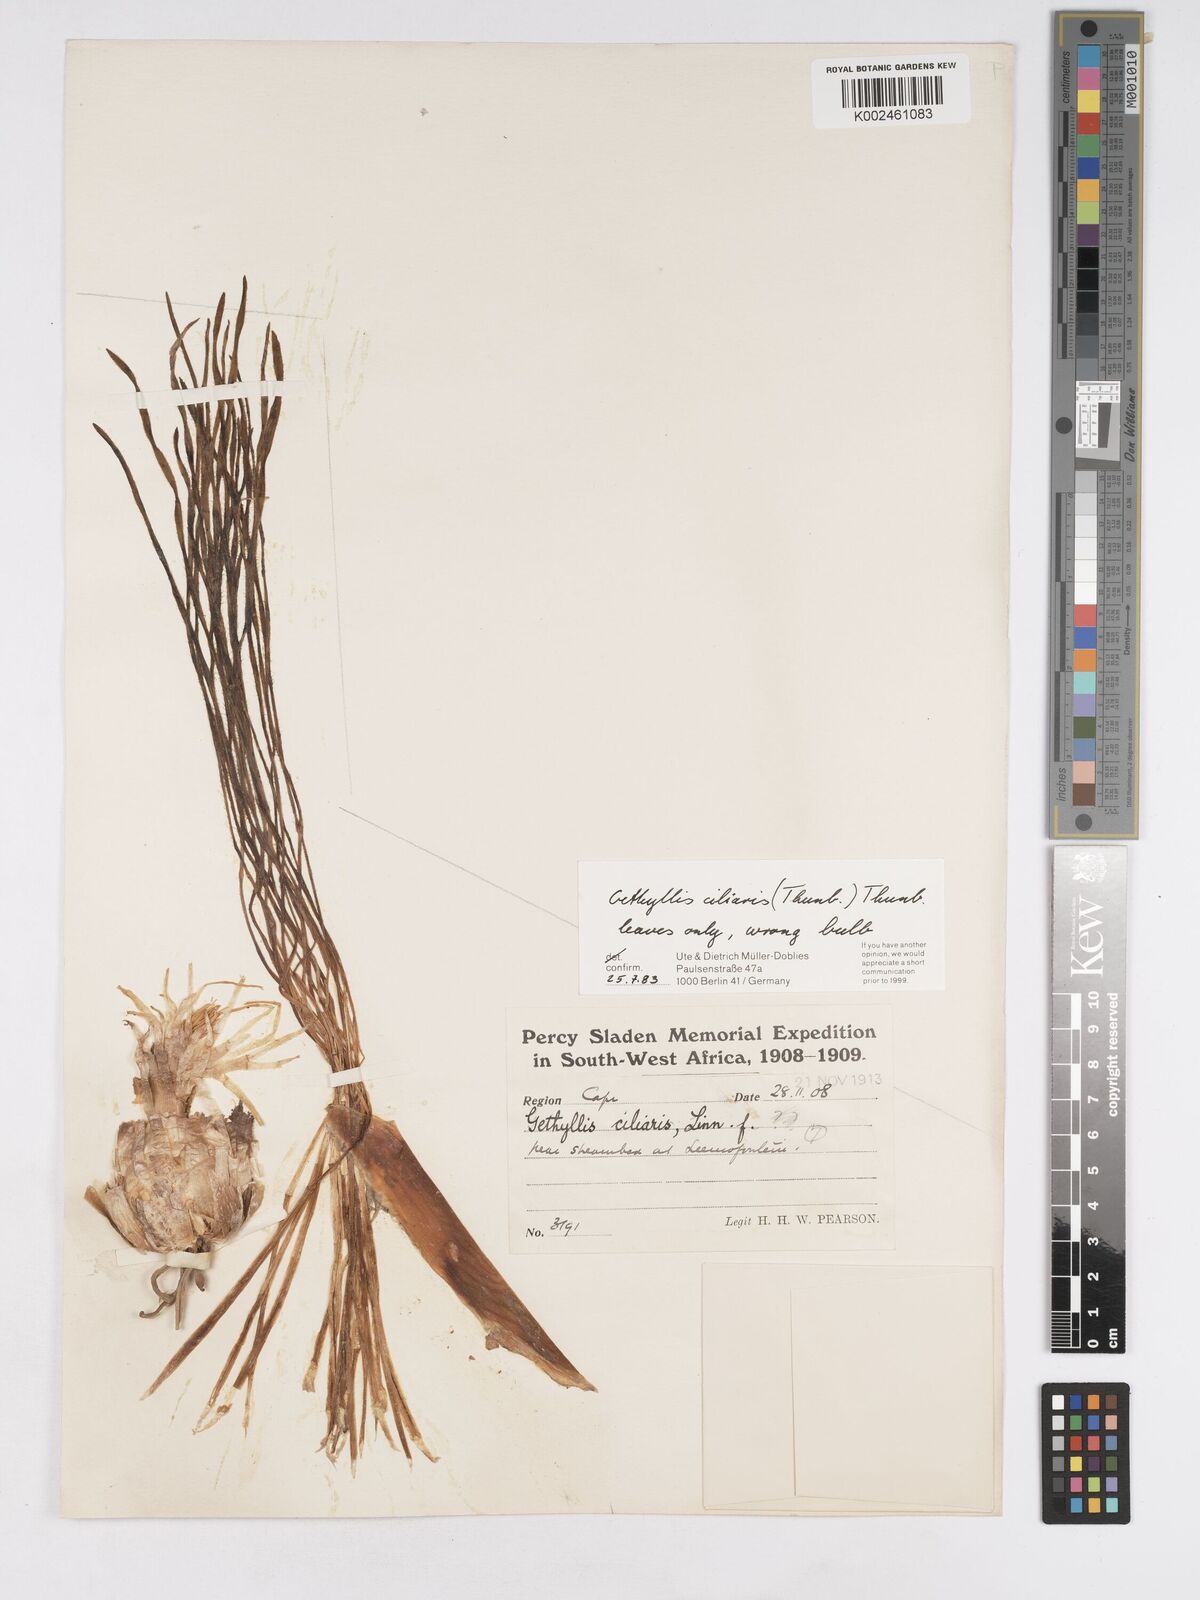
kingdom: Plantae
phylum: Tracheophyta
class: Liliopsida
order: Asparagales
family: Amaryllidaceae
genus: Gethyllis
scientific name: Gethyllis ciliaris
